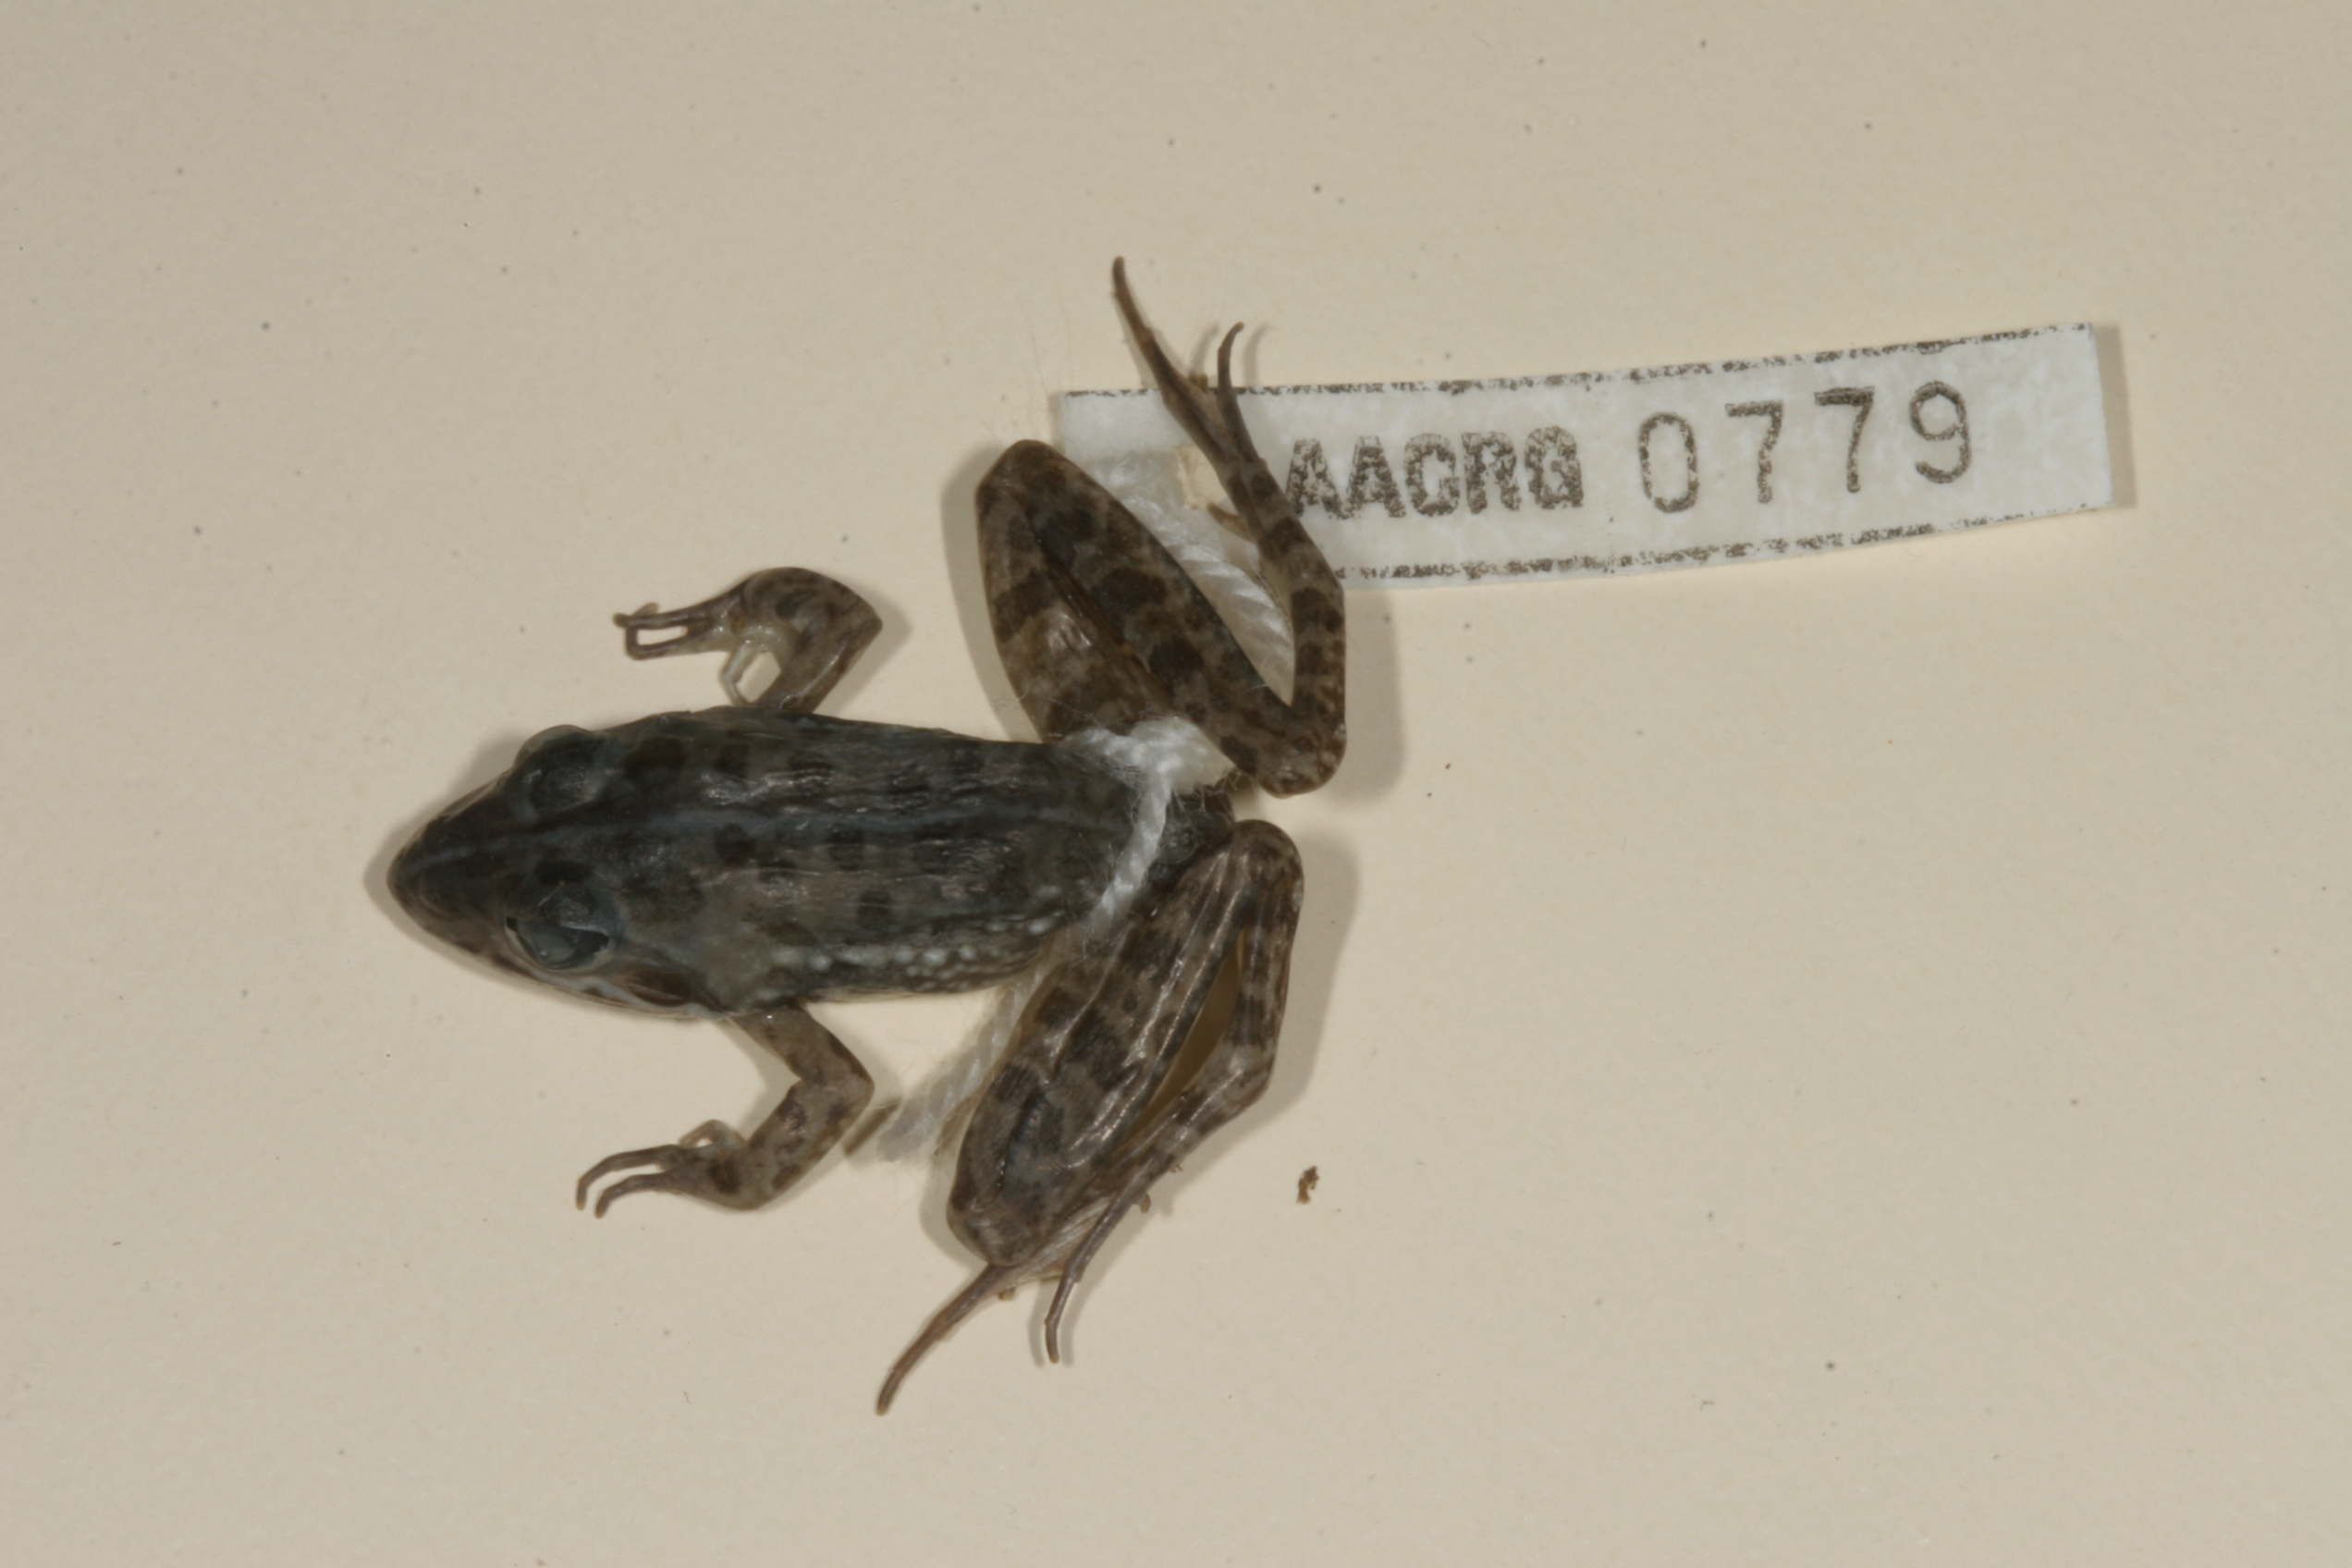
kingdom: Animalia
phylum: Chordata
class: Amphibia
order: Anura
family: Pyxicephalidae
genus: Amietia
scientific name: Amietia angolensis
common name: Dusky-throated frog
